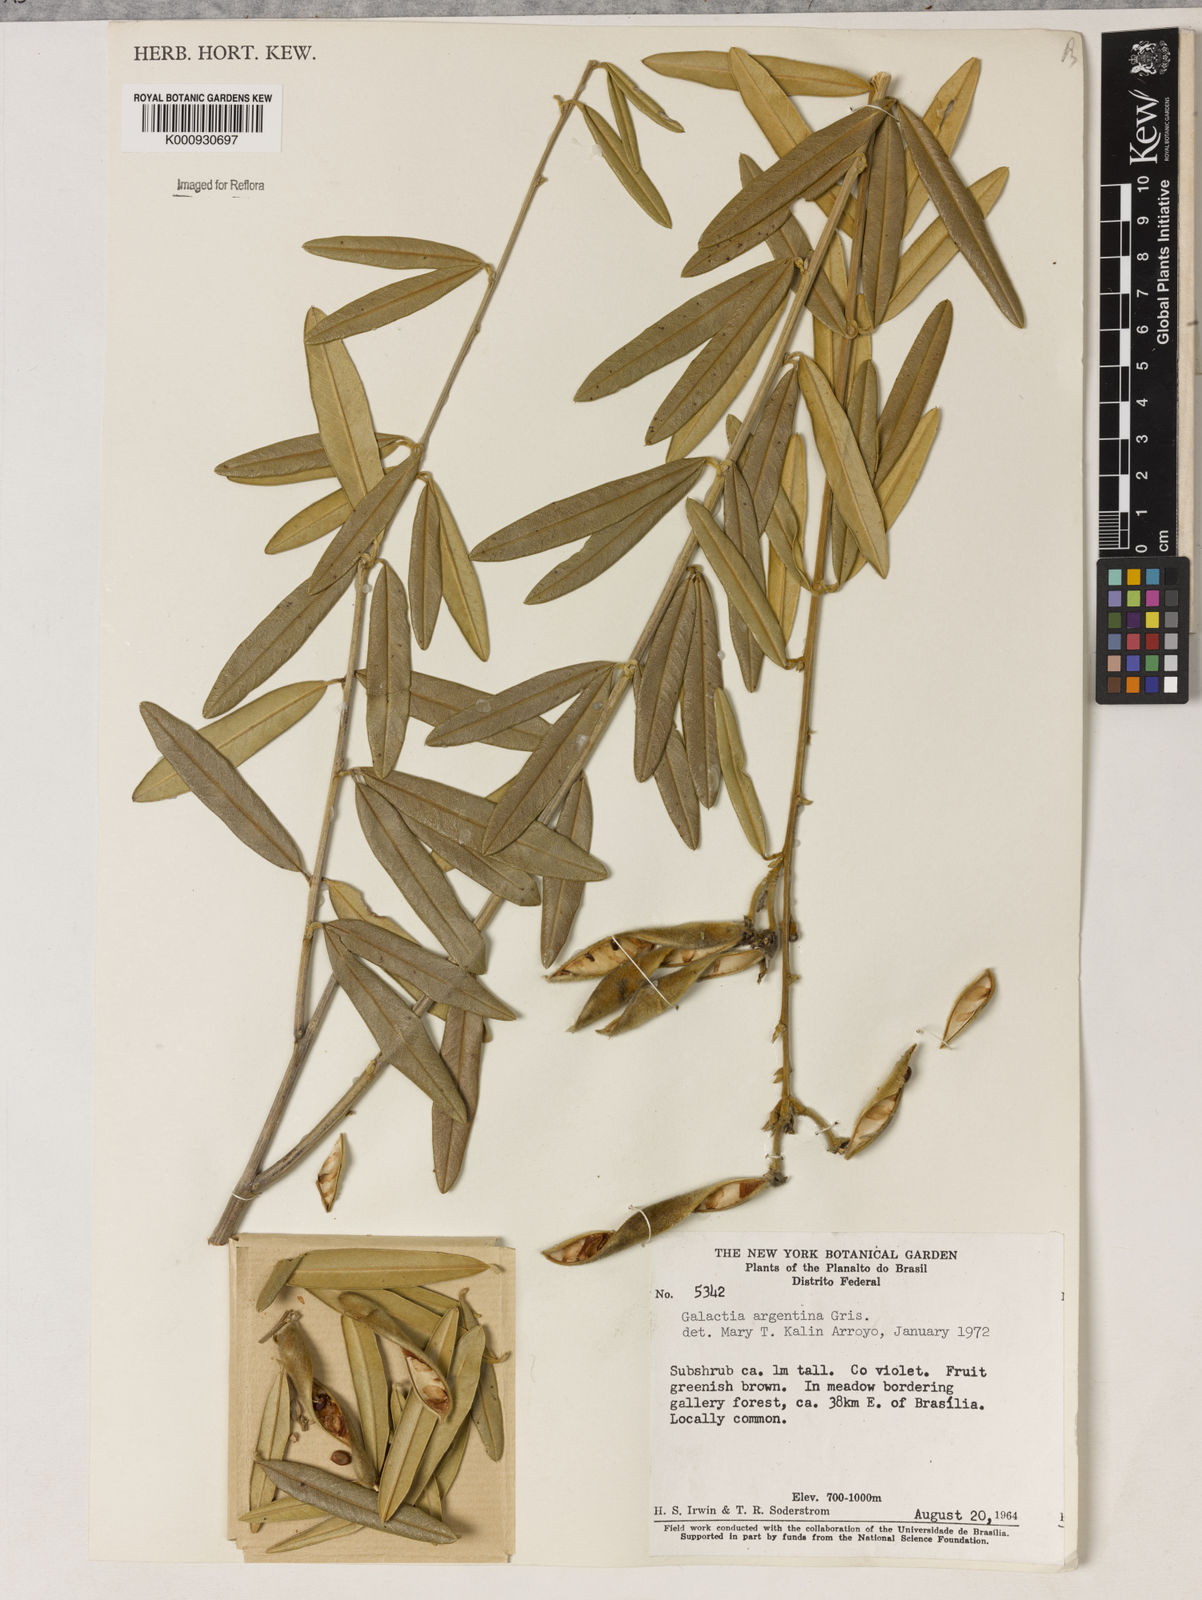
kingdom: Plantae
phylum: Tracheophyta
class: Magnoliopsida
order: Lamiales
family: Lamiaceae
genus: Coleus
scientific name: Coleus barbatus
